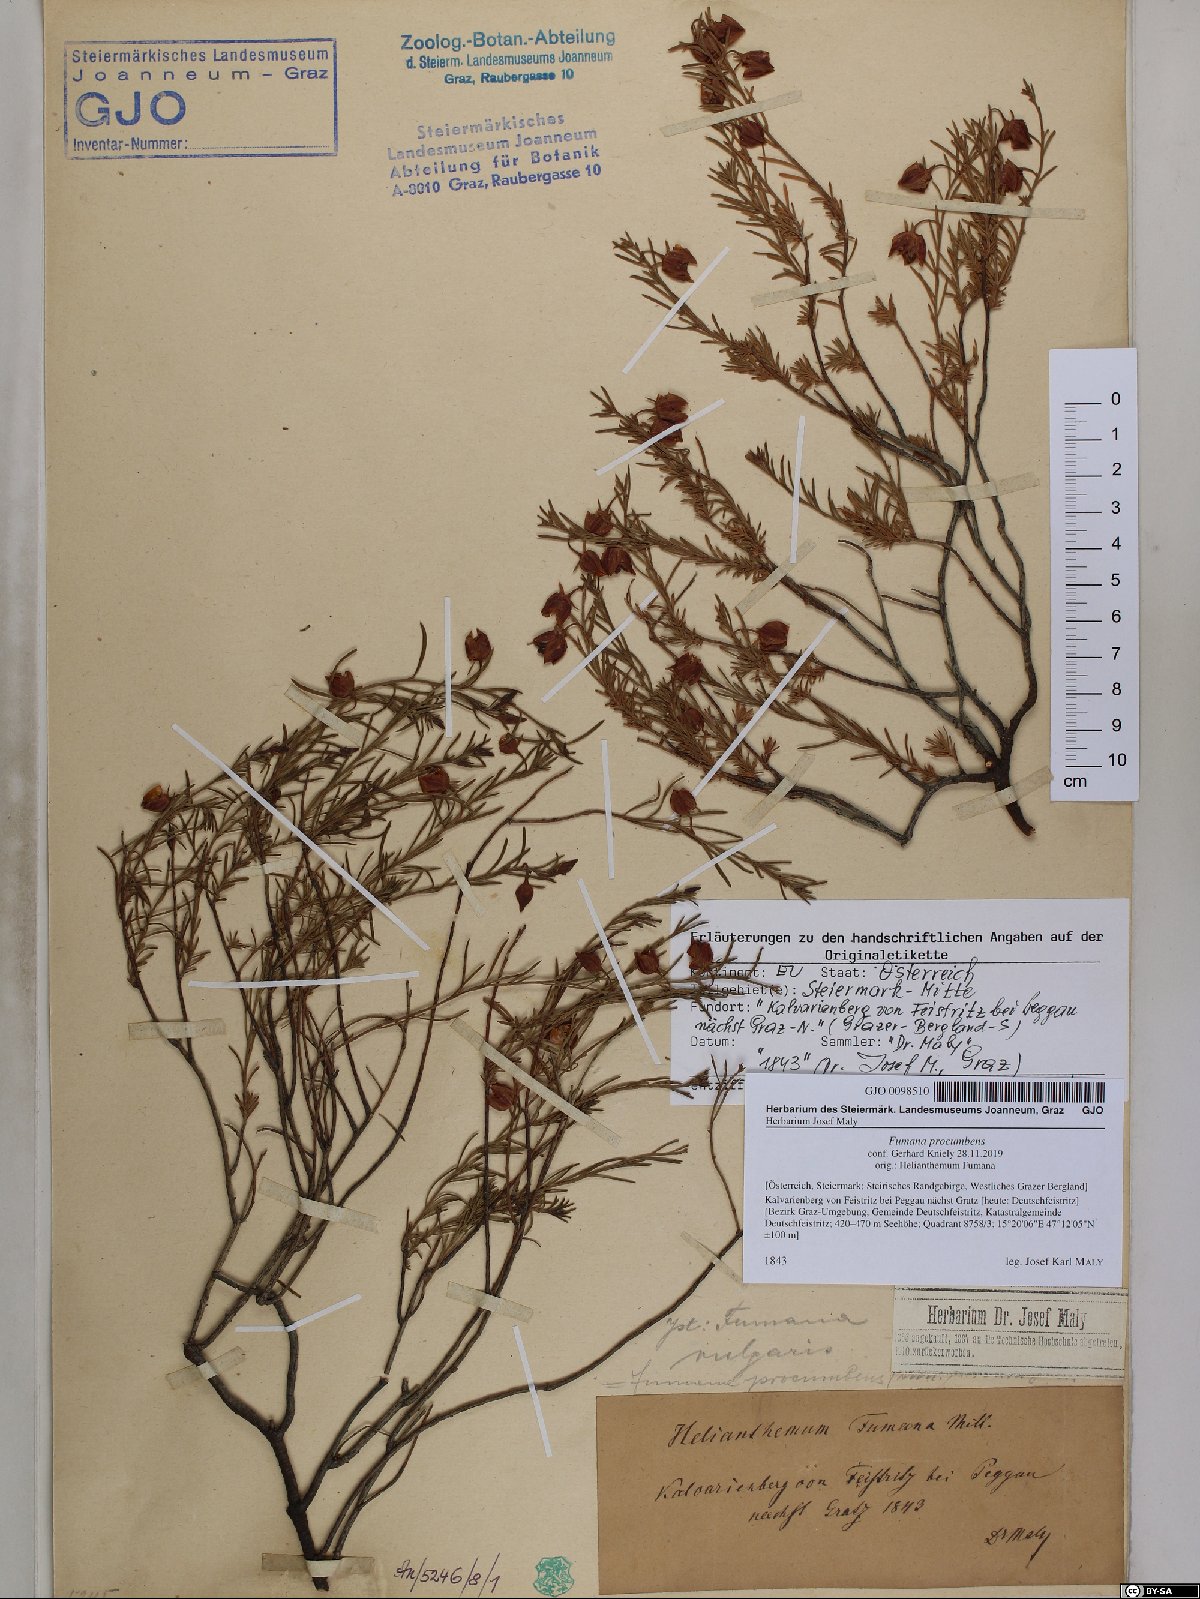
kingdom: Plantae
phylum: Tracheophyta
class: Magnoliopsida
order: Malvales
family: Cistaceae
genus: Fumana
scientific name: Fumana procumbens
